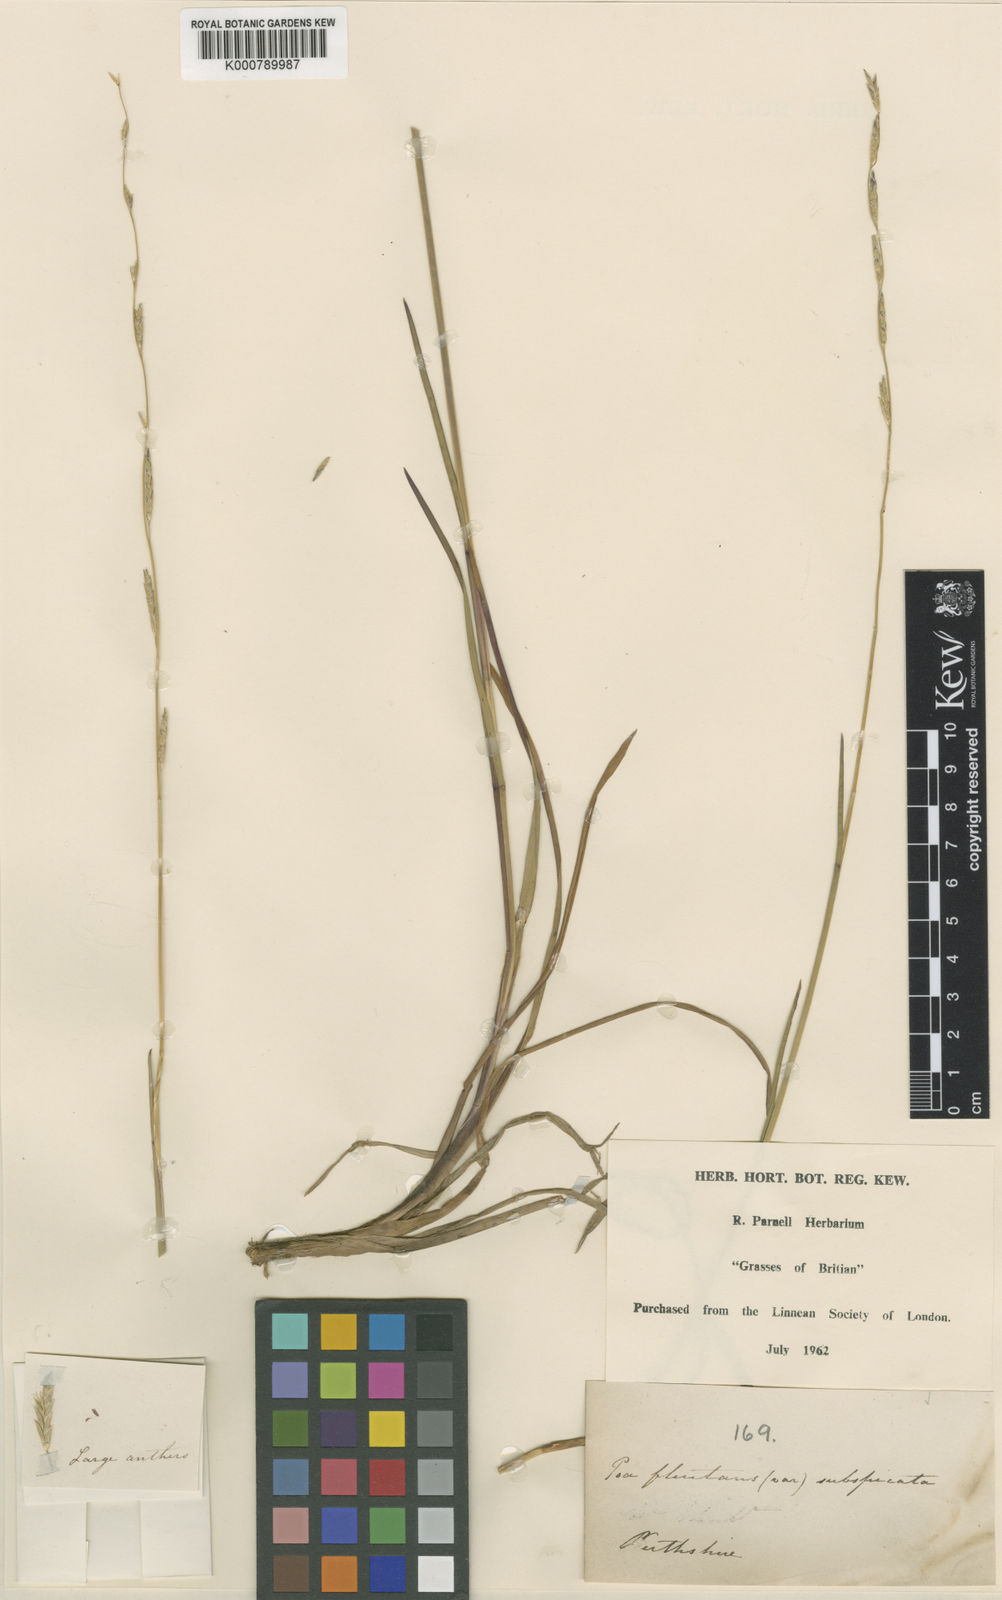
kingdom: Plantae
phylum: Tracheophyta
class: Liliopsida
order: Poales
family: Poaceae
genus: Glyceria
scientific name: Glyceria fluitans
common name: Floating sweet-grass
